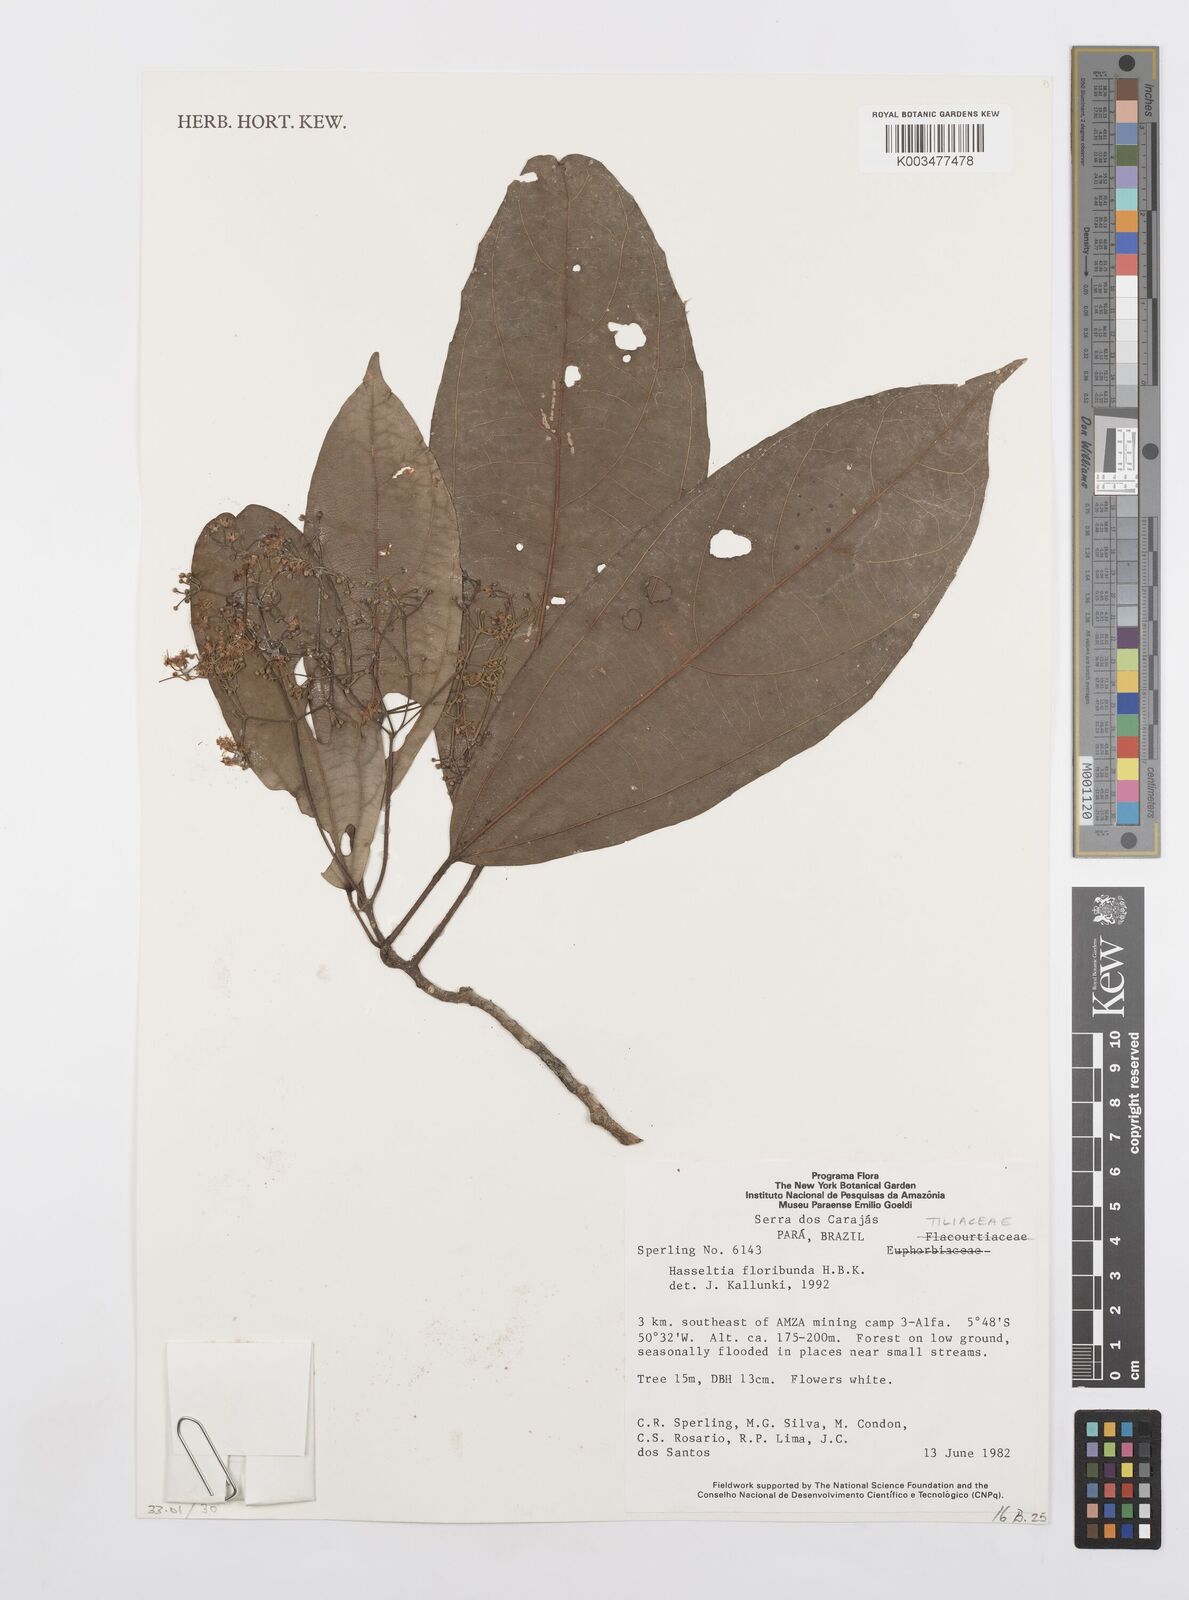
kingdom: Plantae
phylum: Tracheophyta
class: Magnoliopsida
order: Malpighiales
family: Salicaceae
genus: Hasseltia
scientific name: Hasseltia floribunda
